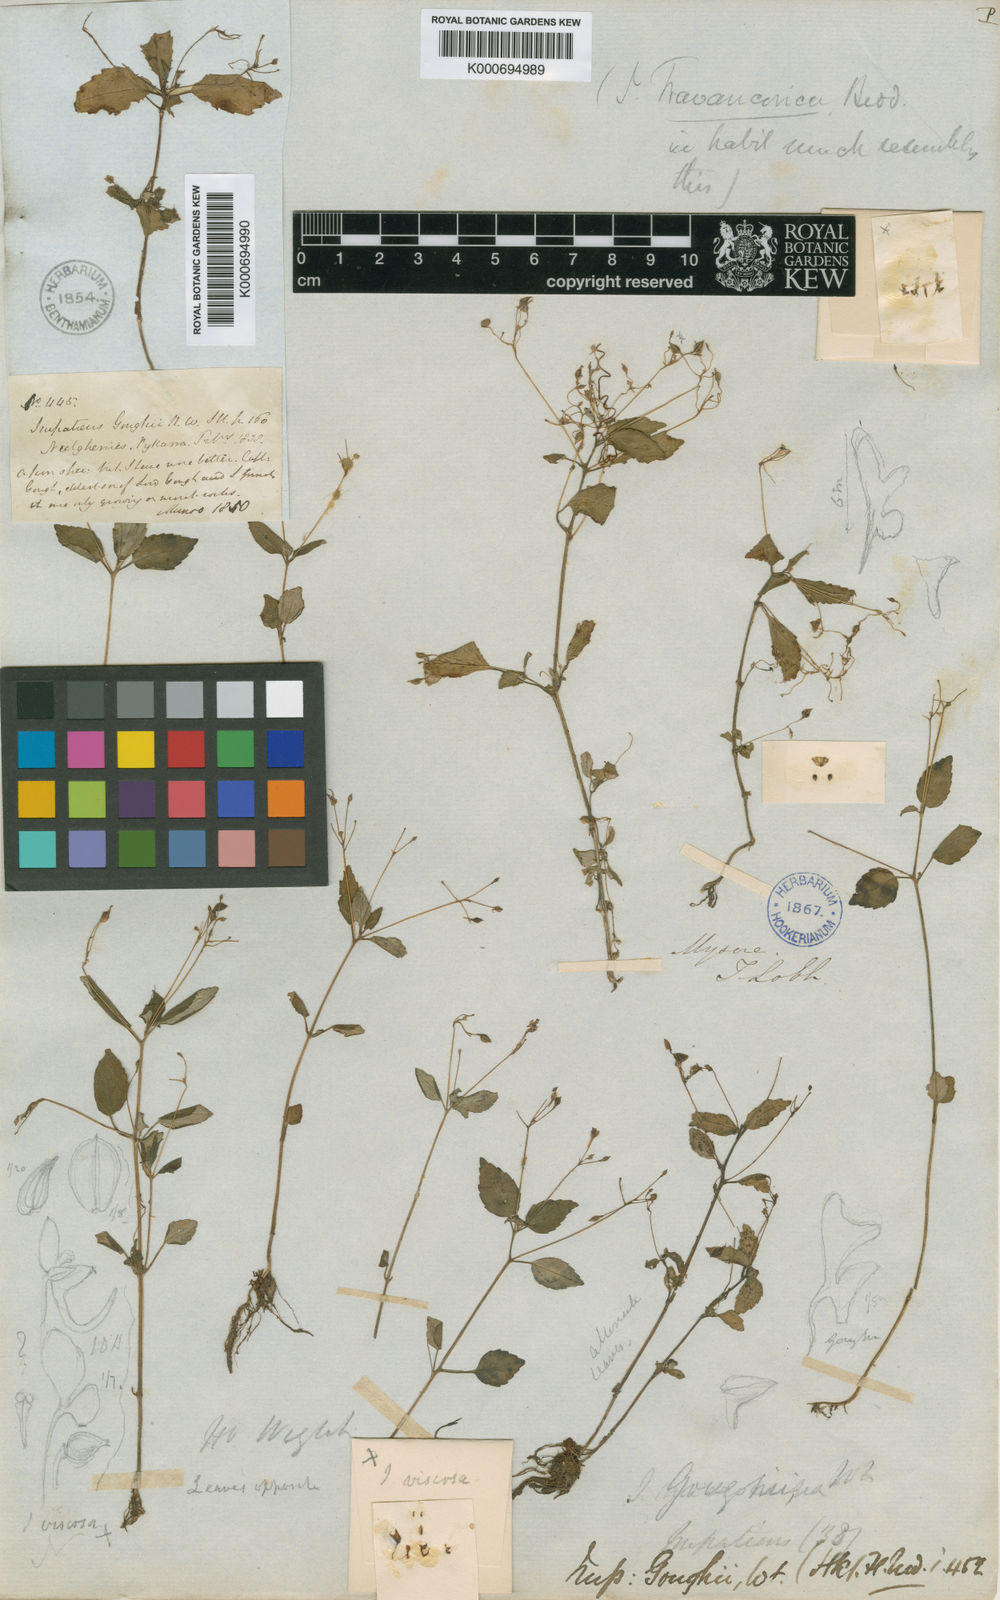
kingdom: Plantae
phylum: Tracheophyta
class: Magnoliopsida
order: Ericales
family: Balsaminaceae
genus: Impatiens
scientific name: Impatiens goughii
